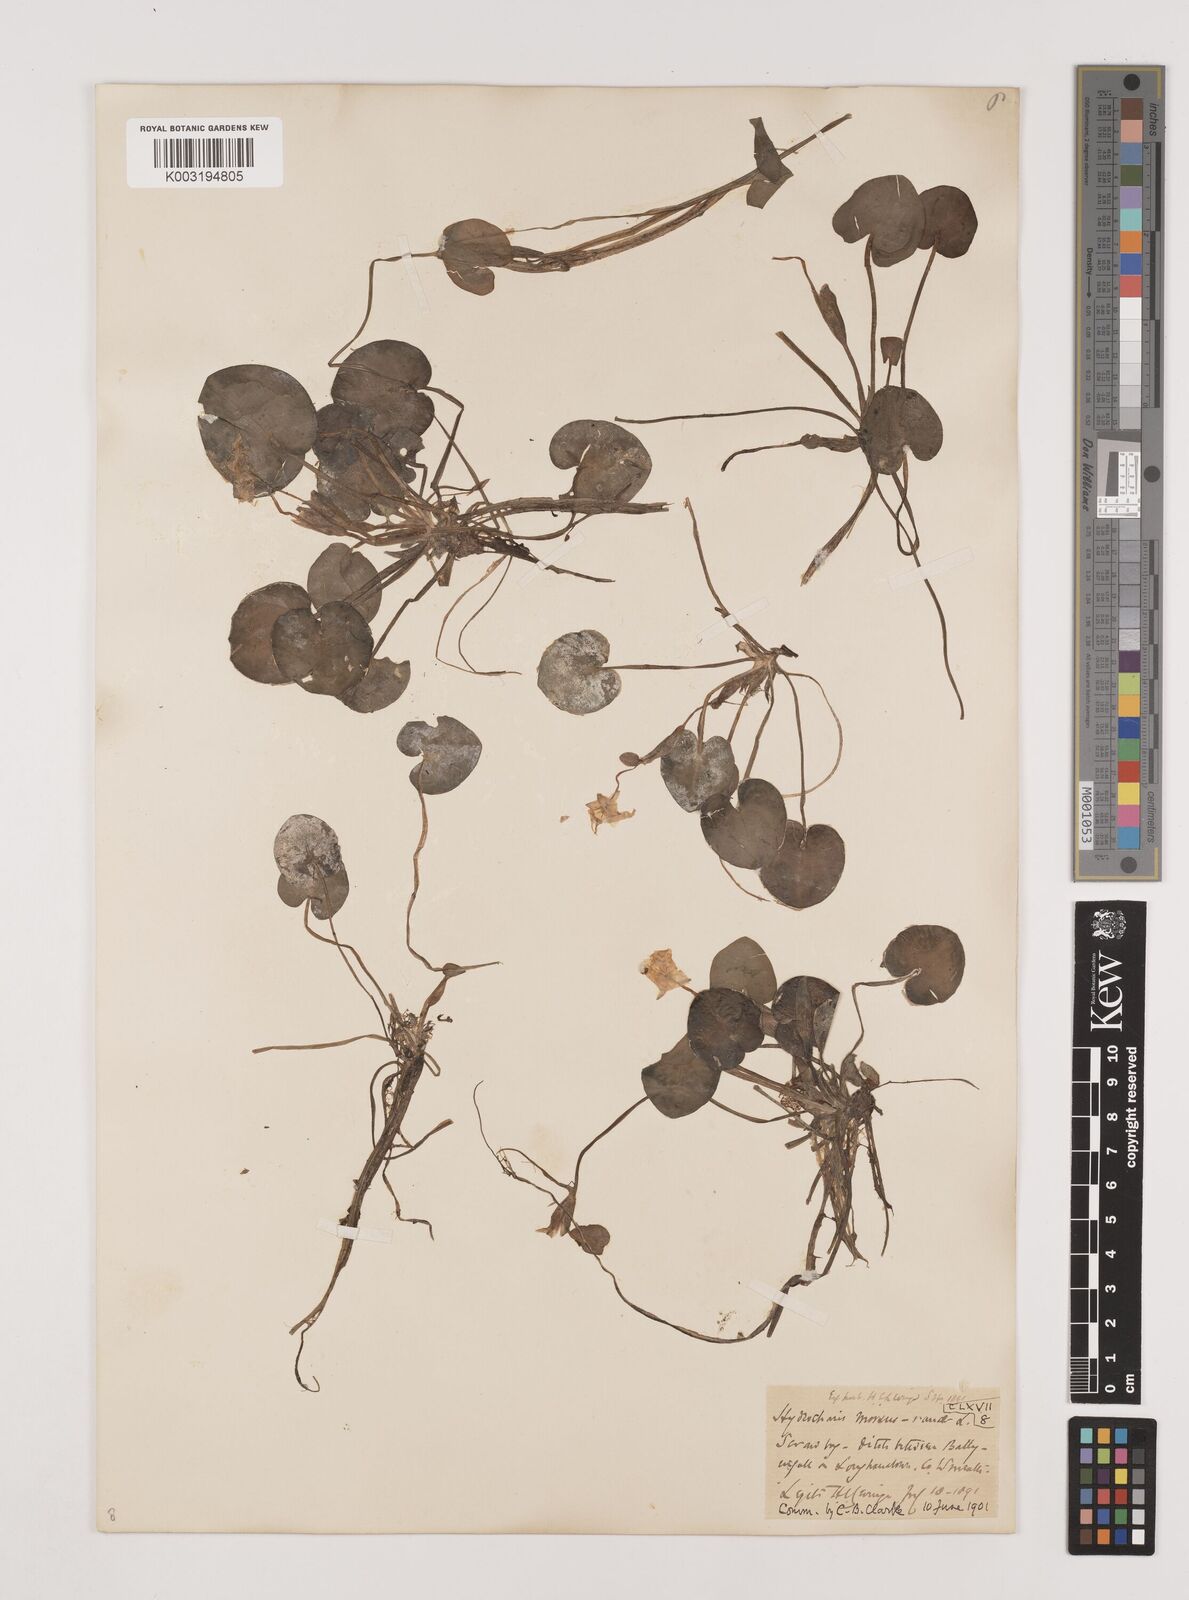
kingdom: Plantae
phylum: Tracheophyta
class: Liliopsida
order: Alismatales
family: Hydrocharitaceae
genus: Hydrocharis
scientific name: Hydrocharis morsus-ranae
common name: Frogbit
